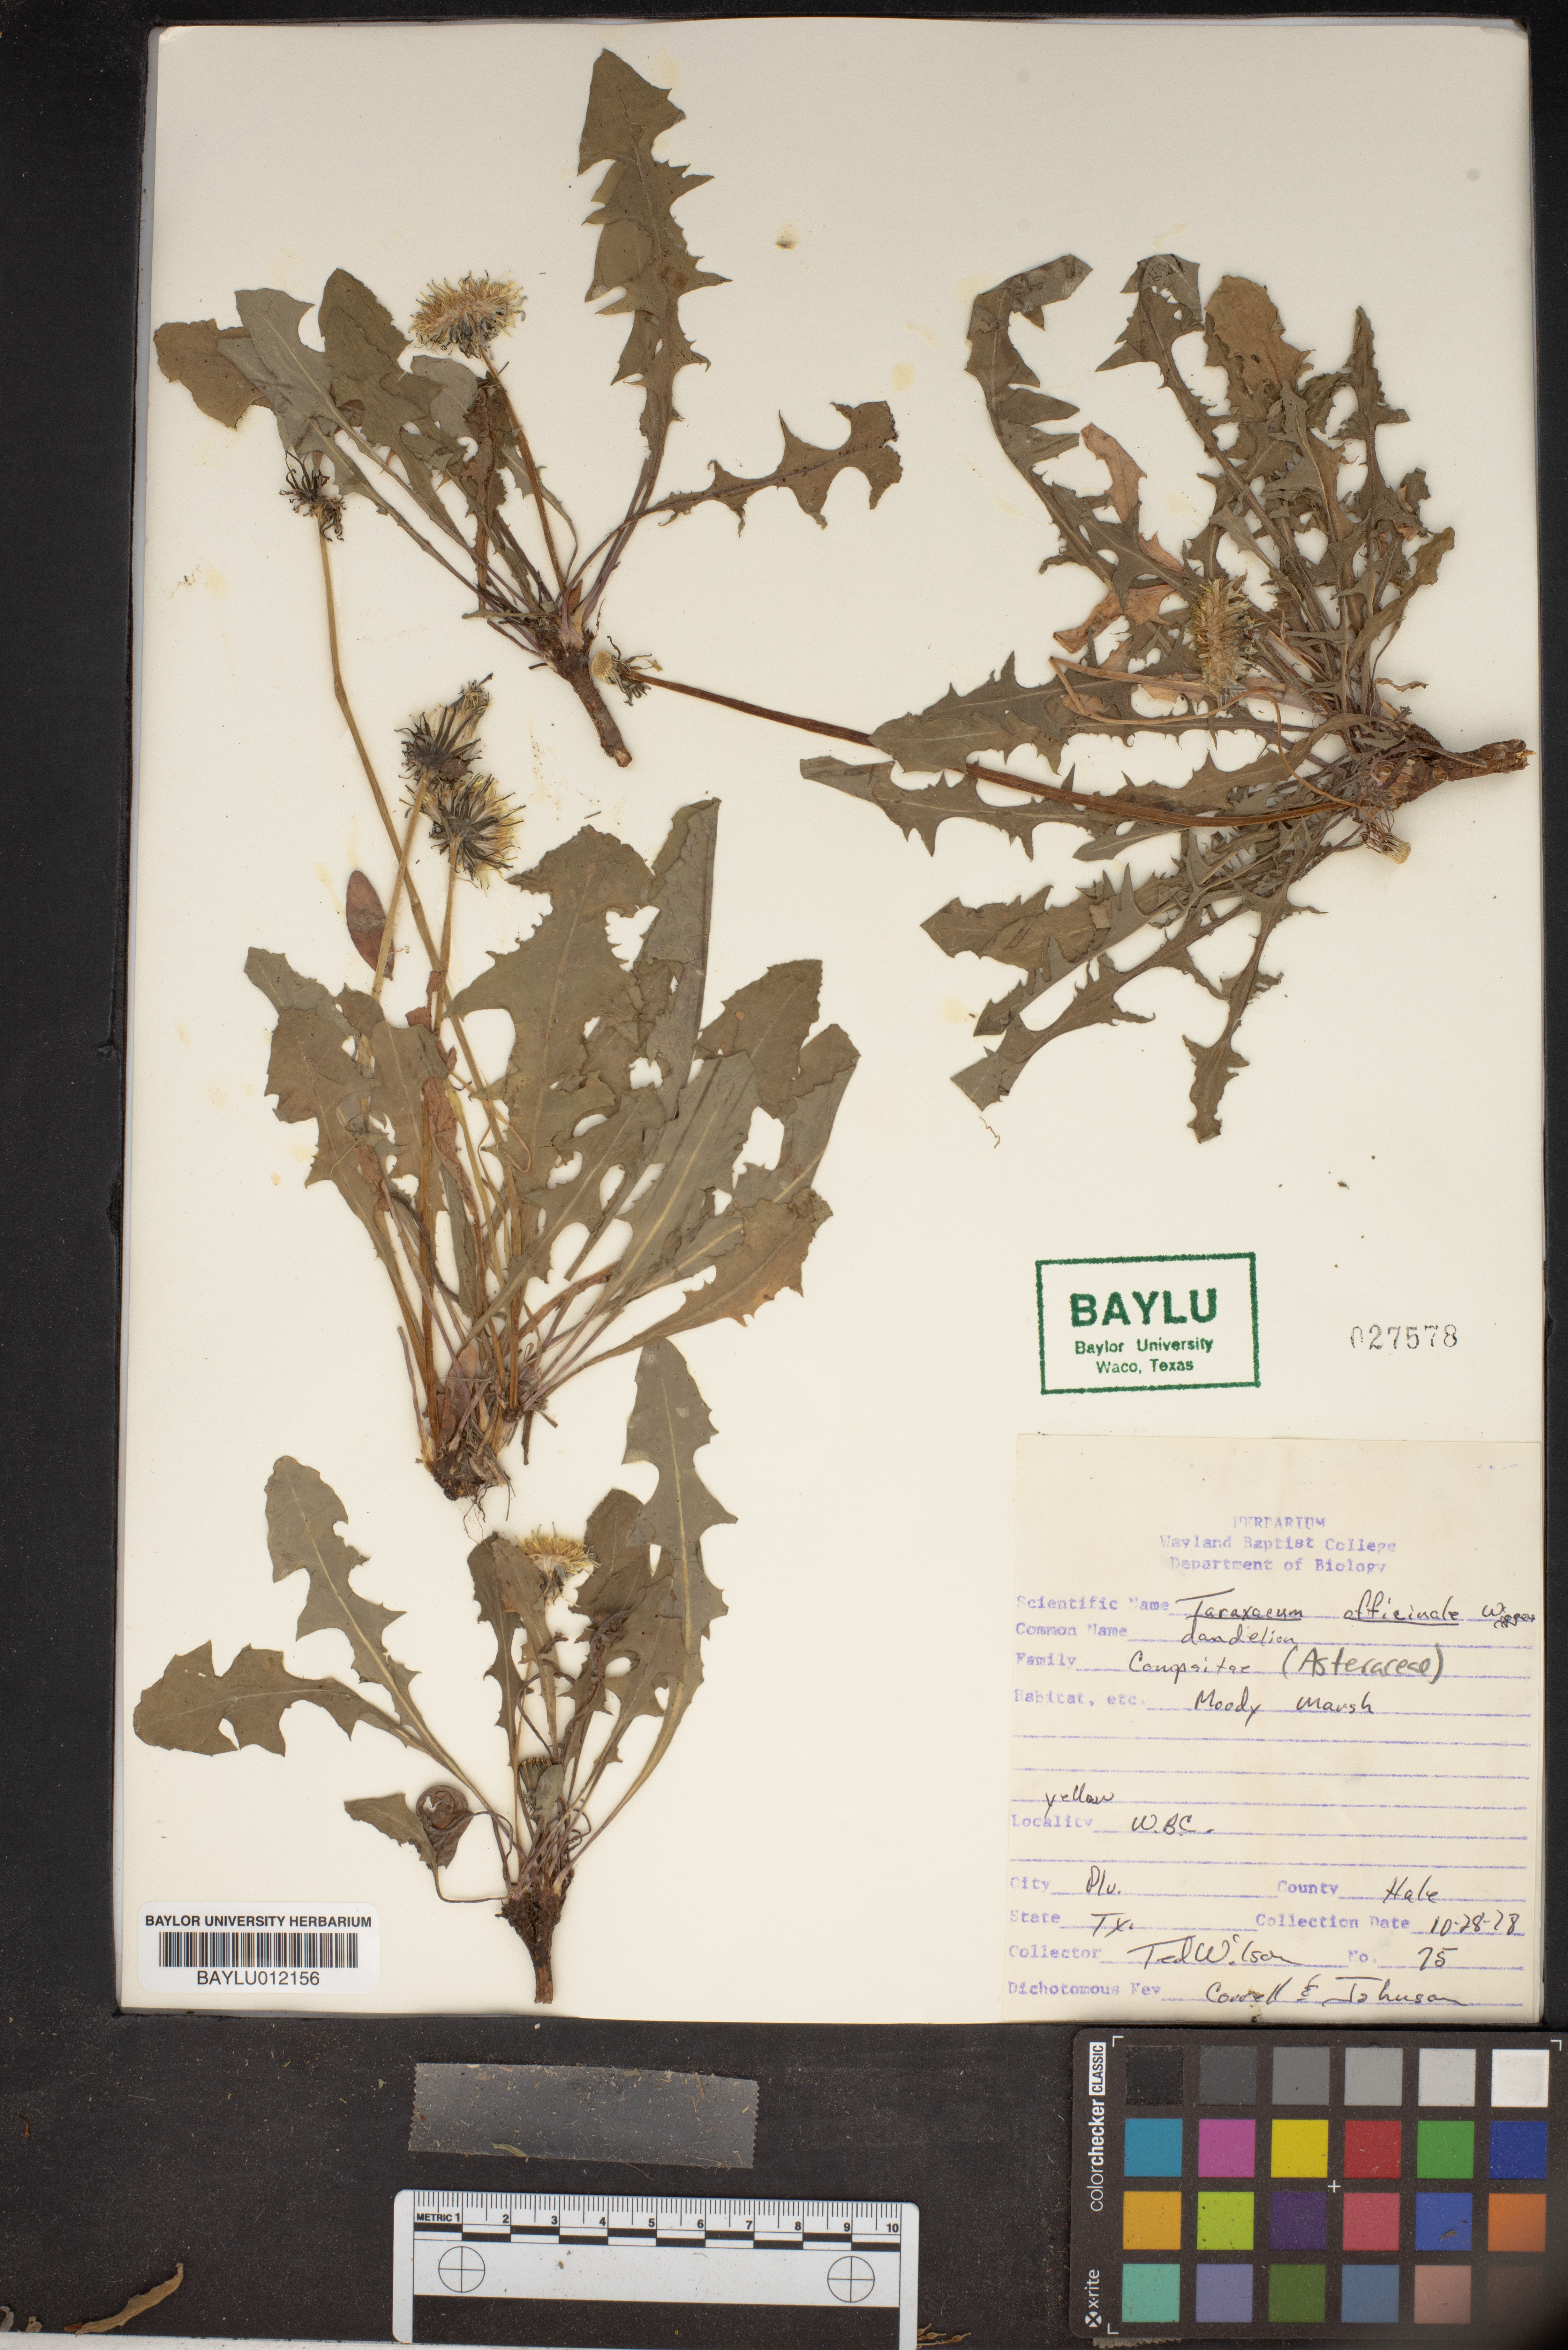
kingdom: Plantae
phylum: Tracheophyta
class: Magnoliopsida
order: Asterales
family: Asteraceae
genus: Taraxacum
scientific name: Taraxacum officinale
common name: Common dandelion
